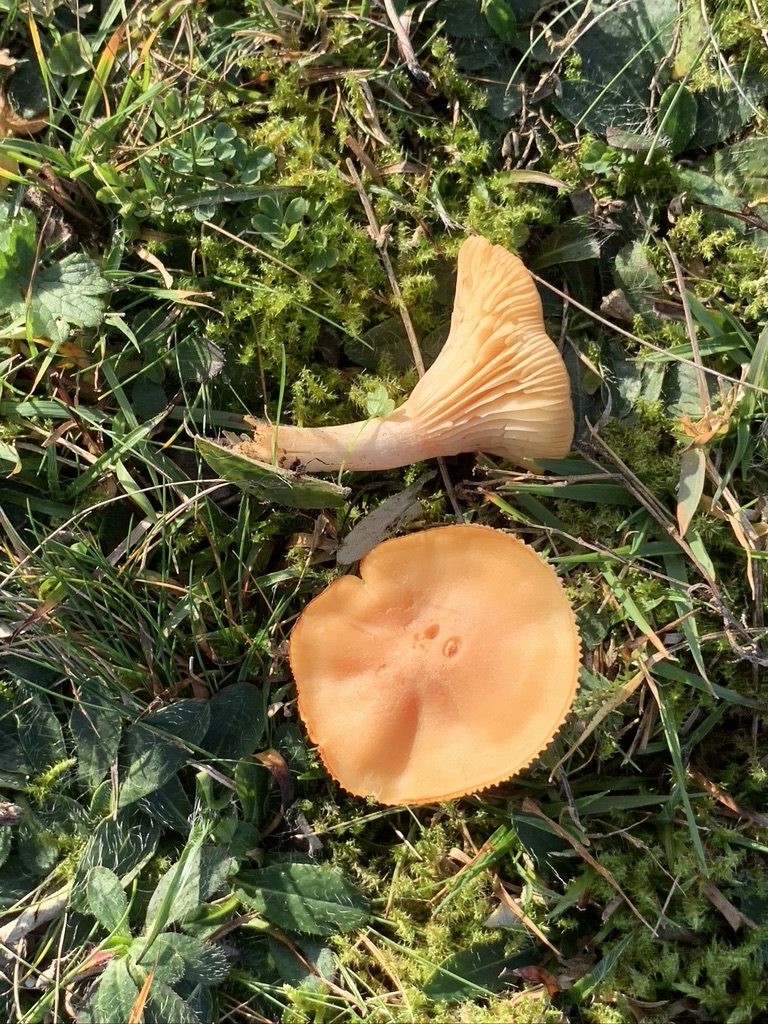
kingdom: Fungi
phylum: Basidiomycota
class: Agaricomycetes
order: Agaricales
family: Hygrophoraceae
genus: Cuphophyllus
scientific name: Cuphophyllus pratensis
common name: eng-vokshat
